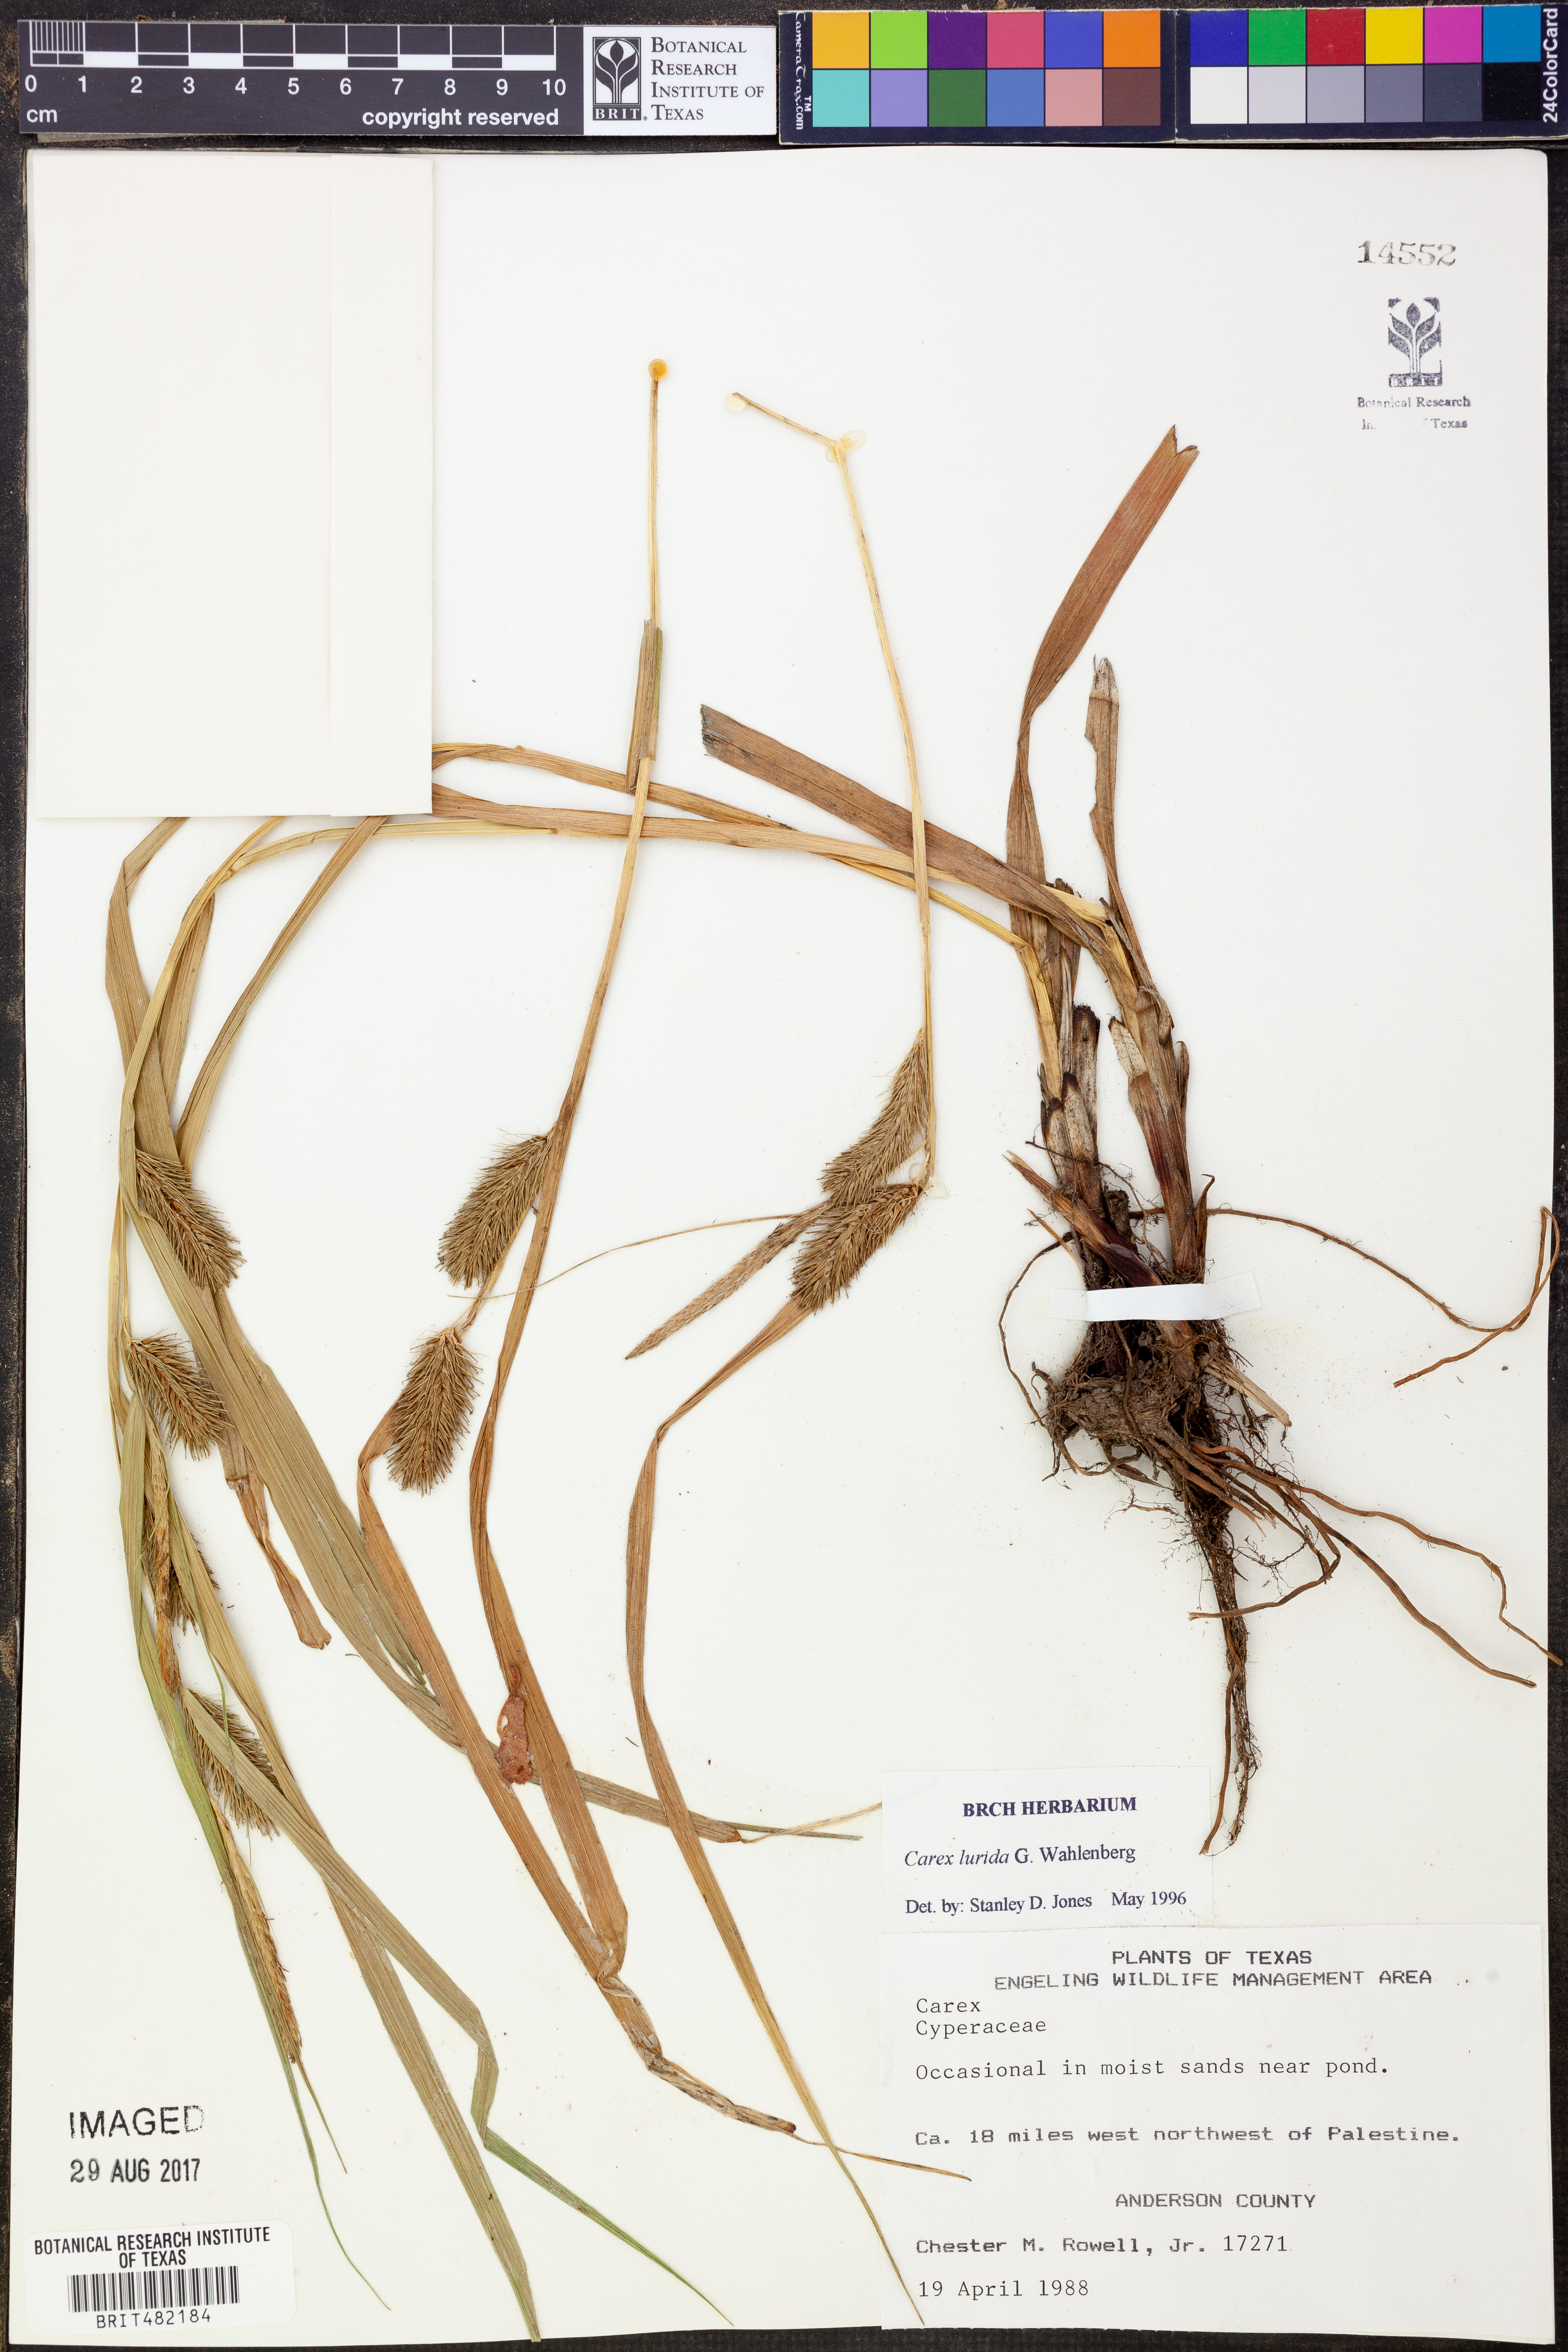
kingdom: Plantae
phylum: Tracheophyta
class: Liliopsida
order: Poales
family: Cyperaceae
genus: Carex
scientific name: Carex lurida
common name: Sallow sedge
